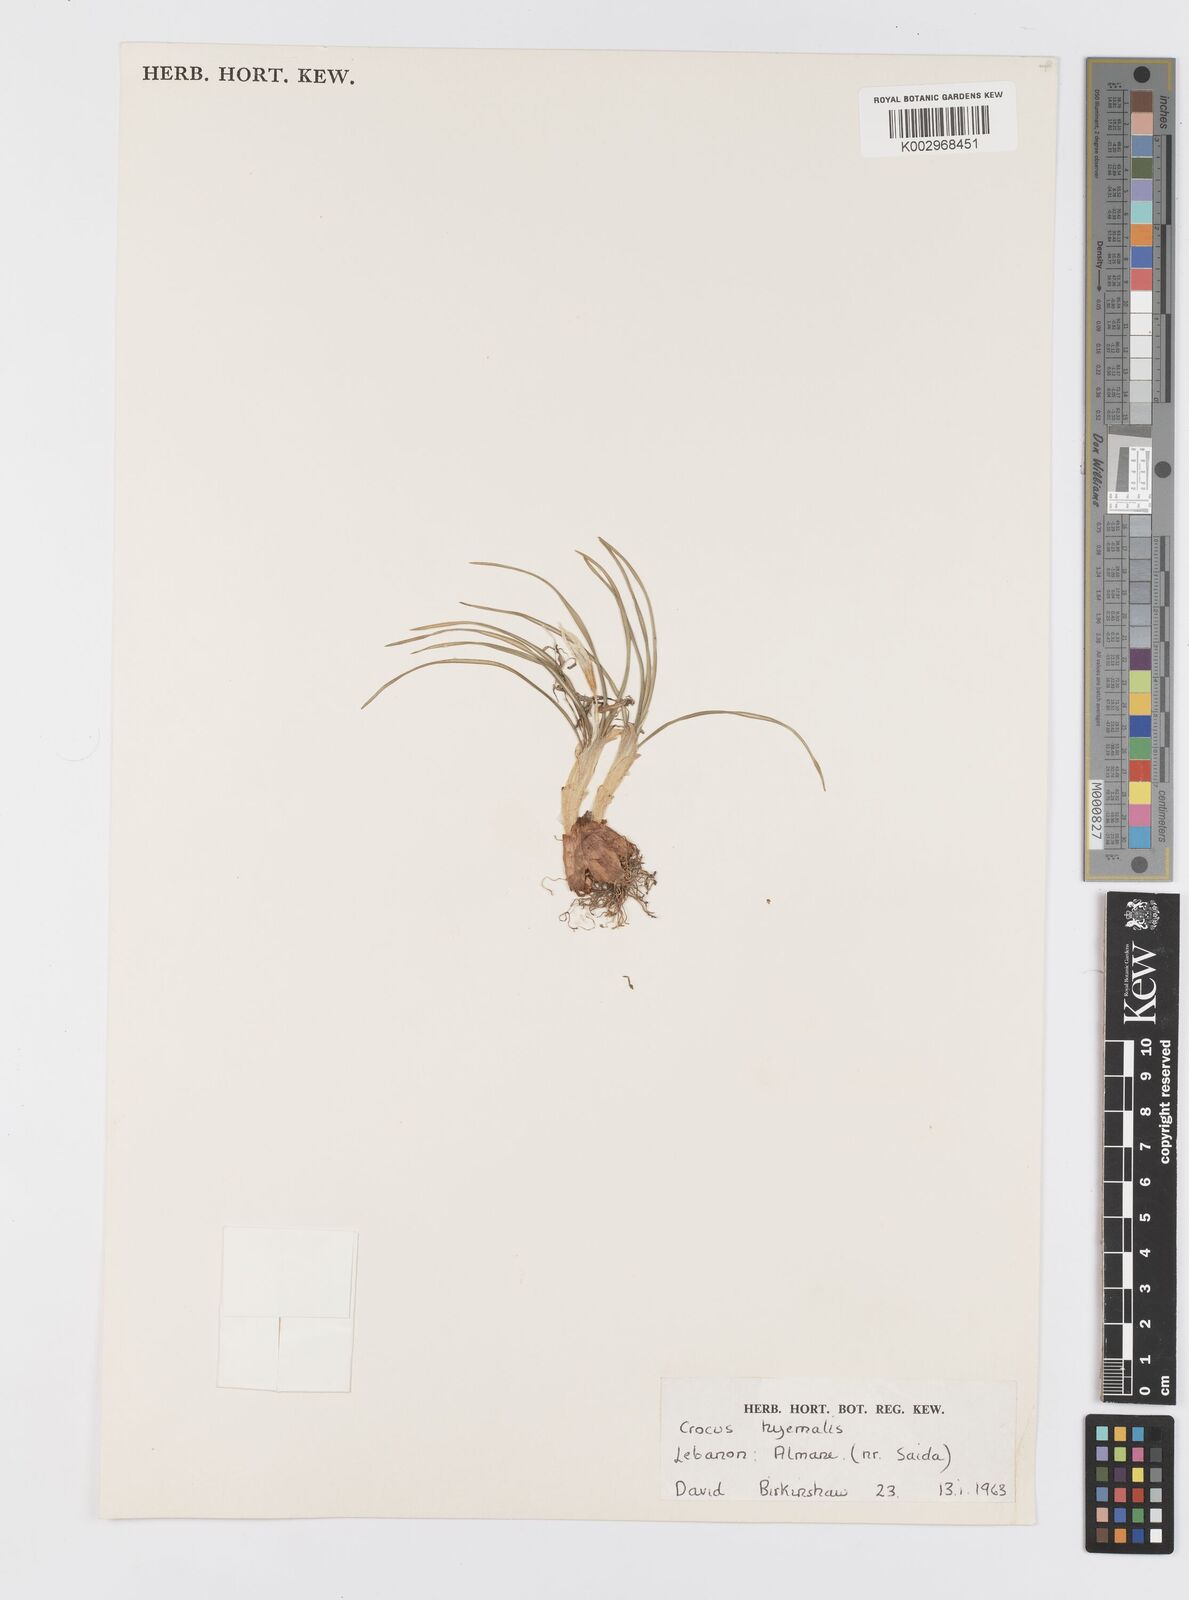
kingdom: Plantae
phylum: Tracheophyta
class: Liliopsida
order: Asparagales
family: Iridaceae
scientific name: Iridaceae
